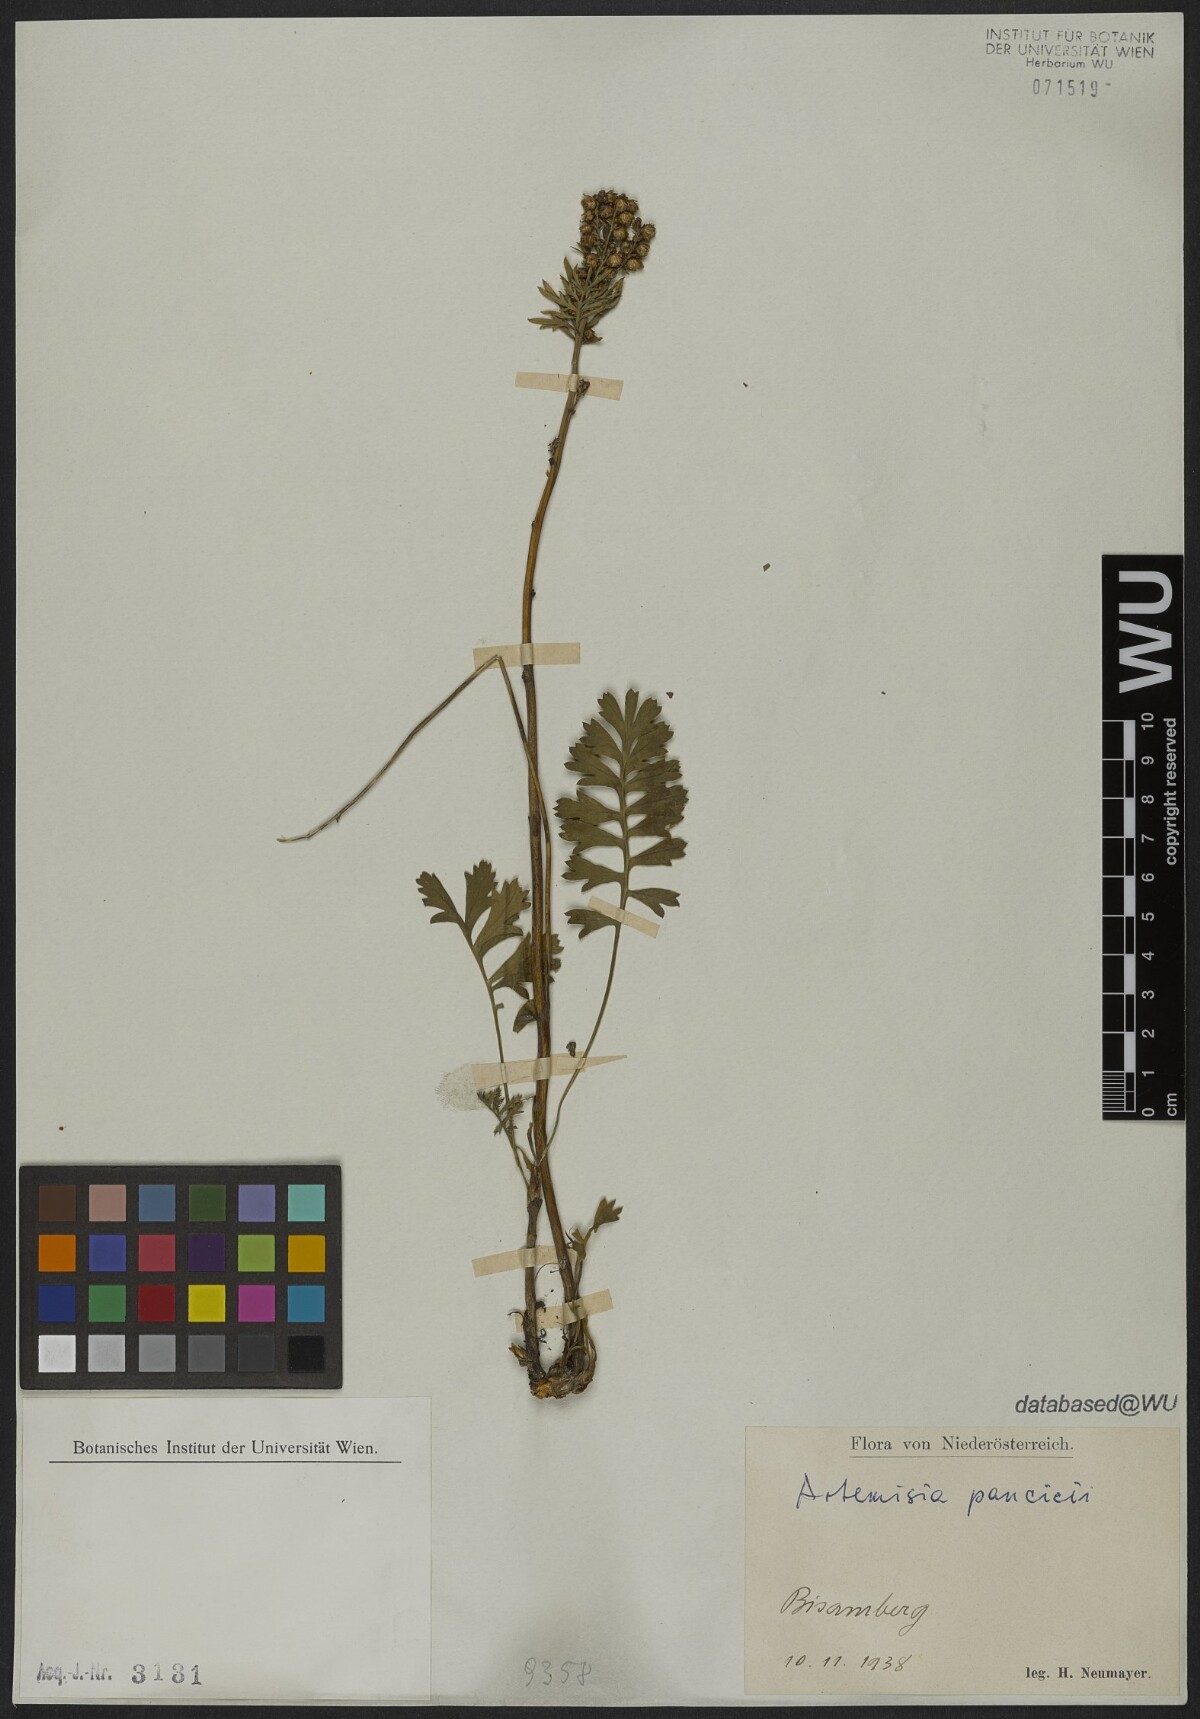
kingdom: Plantae
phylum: Tracheophyta
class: Magnoliopsida
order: Asterales
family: Asteraceae
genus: Artemisia
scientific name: Artemisia pancicii
